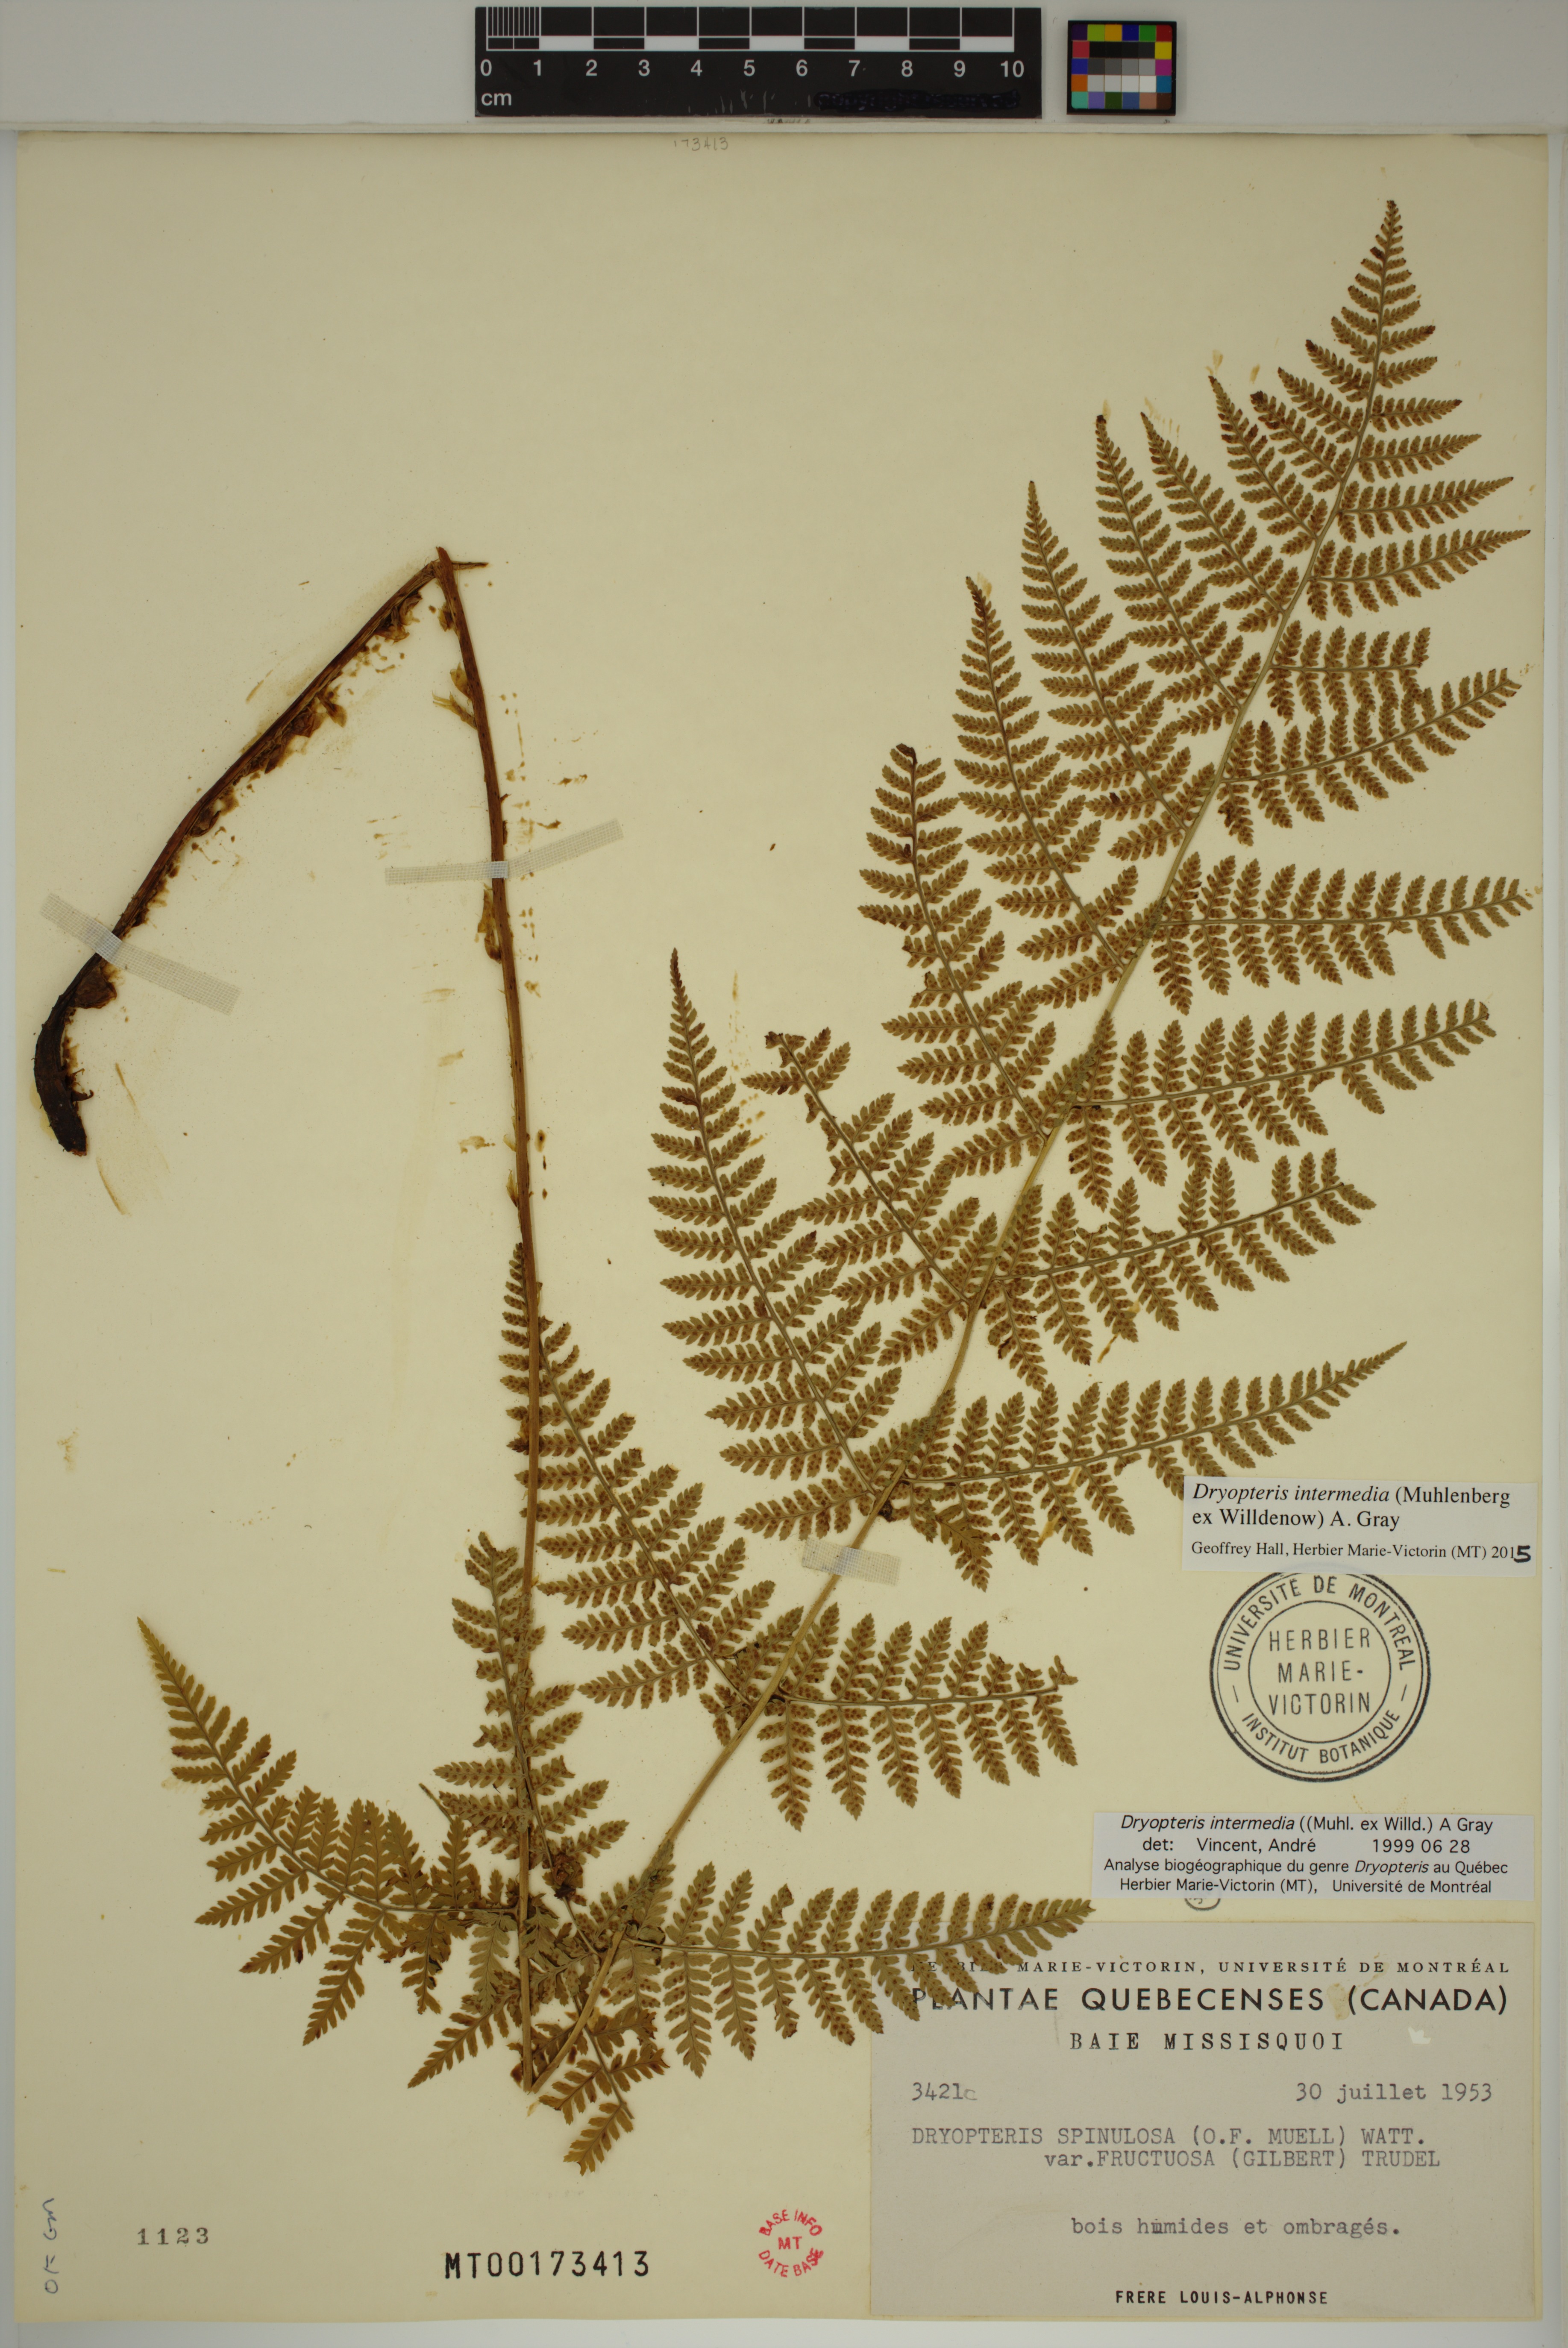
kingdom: Plantae
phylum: Tracheophyta
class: Polypodiopsida
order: Polypodiales
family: Dryopteridaceae
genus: Dryopteris
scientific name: Dryopteris intermedia
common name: Evergreen wood fern
